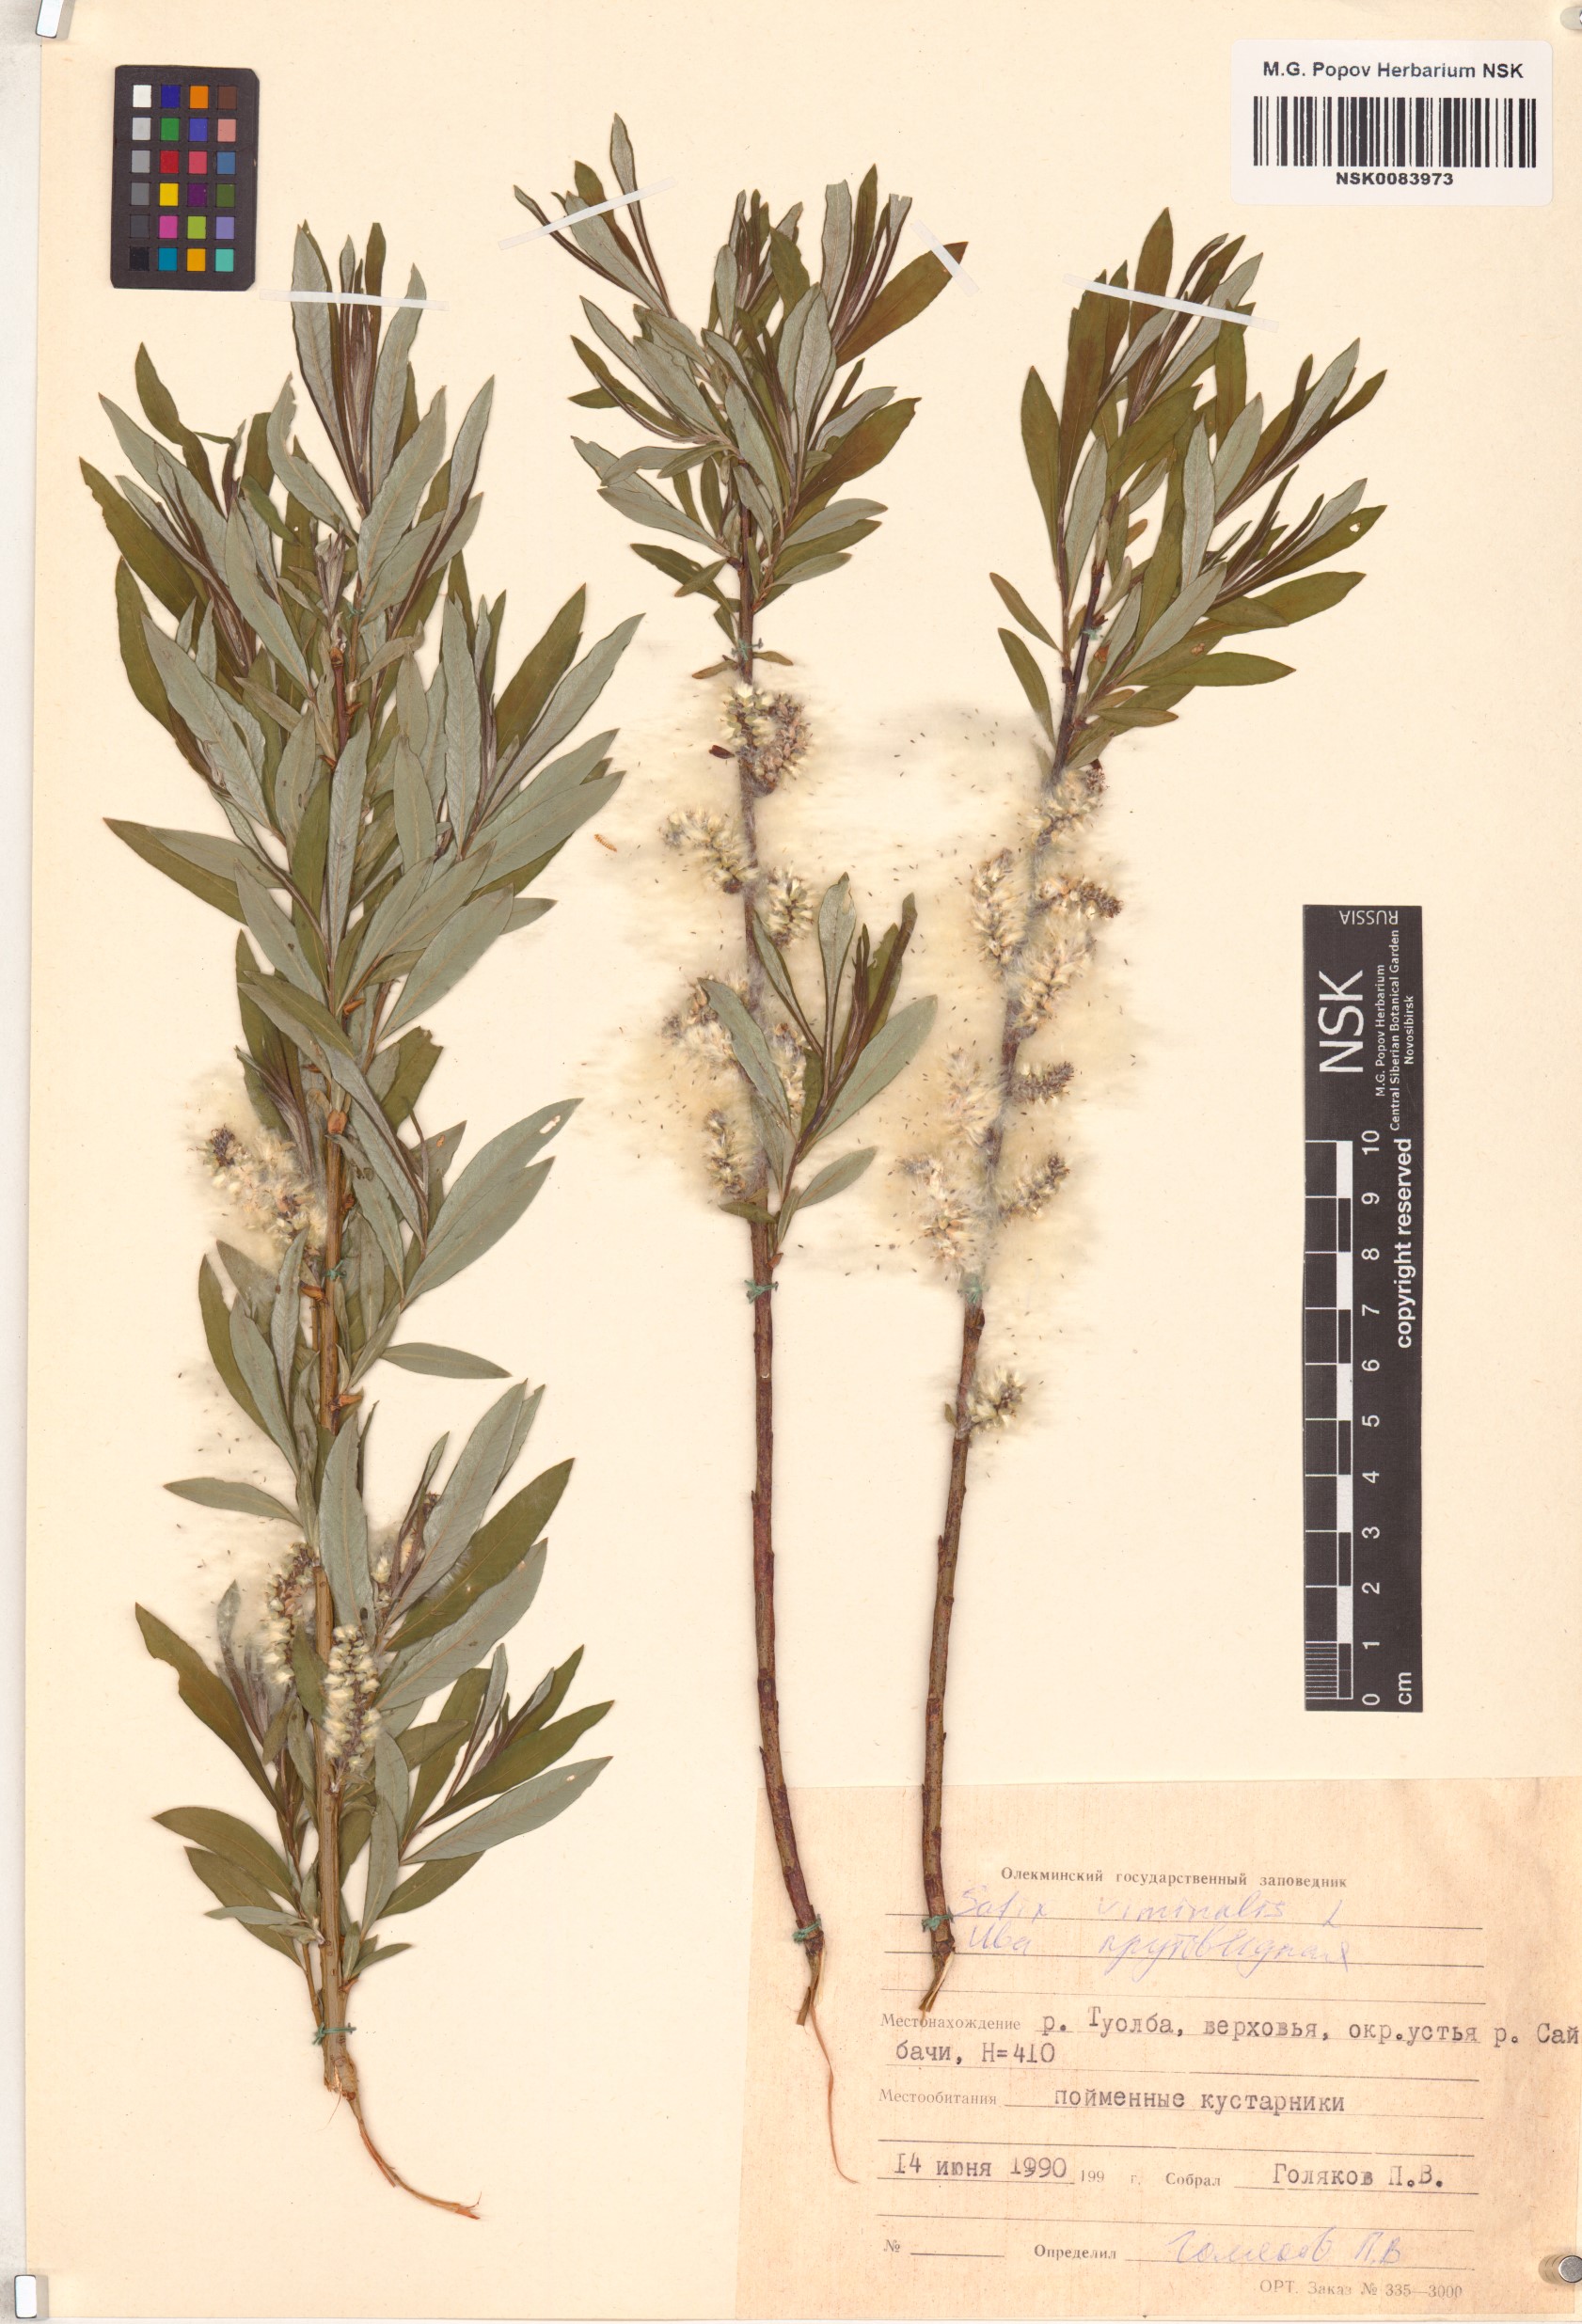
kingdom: Plantae
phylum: Tracheophyta
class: Magnoliopsida
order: Malpighiales
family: Salicaceae
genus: Salix
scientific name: Salix viminalis
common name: Osier
